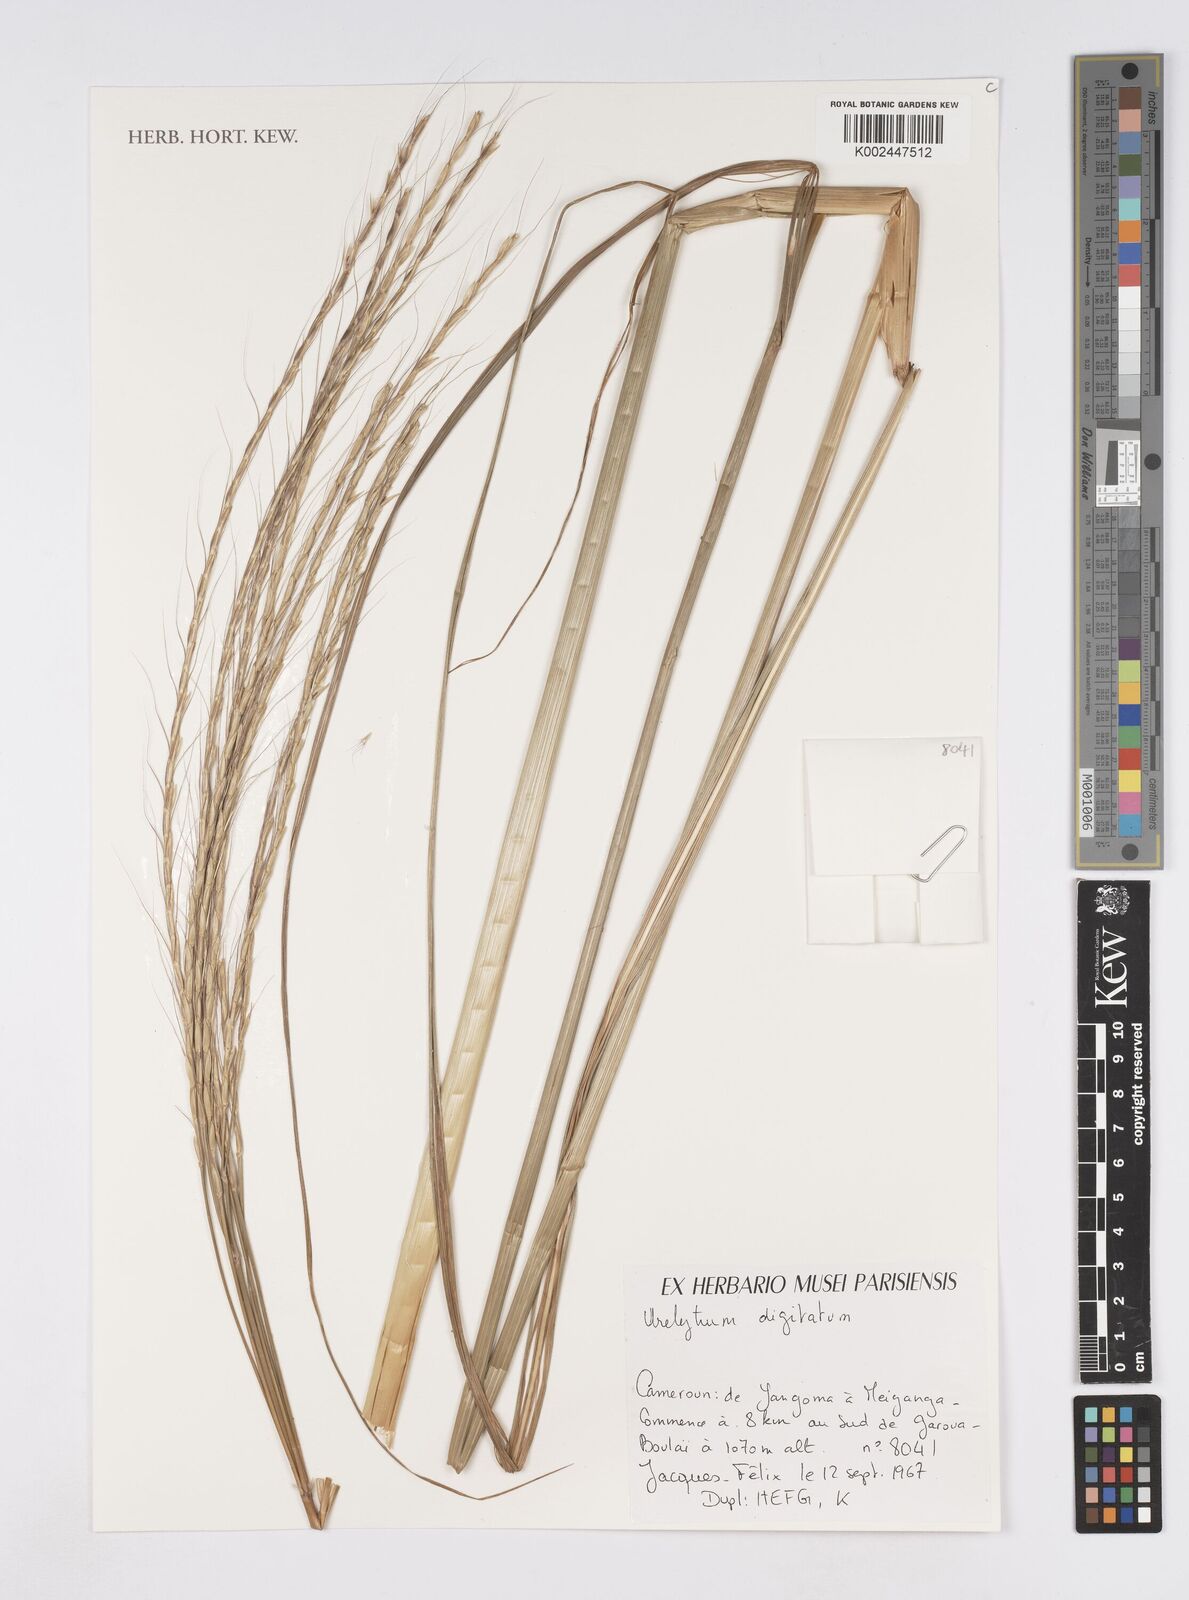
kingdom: Plantae
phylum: Tracheophyta
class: Liliopsida
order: Poales
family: Poaceae
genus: Urelytrum
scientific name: Urelytrum digitatum
